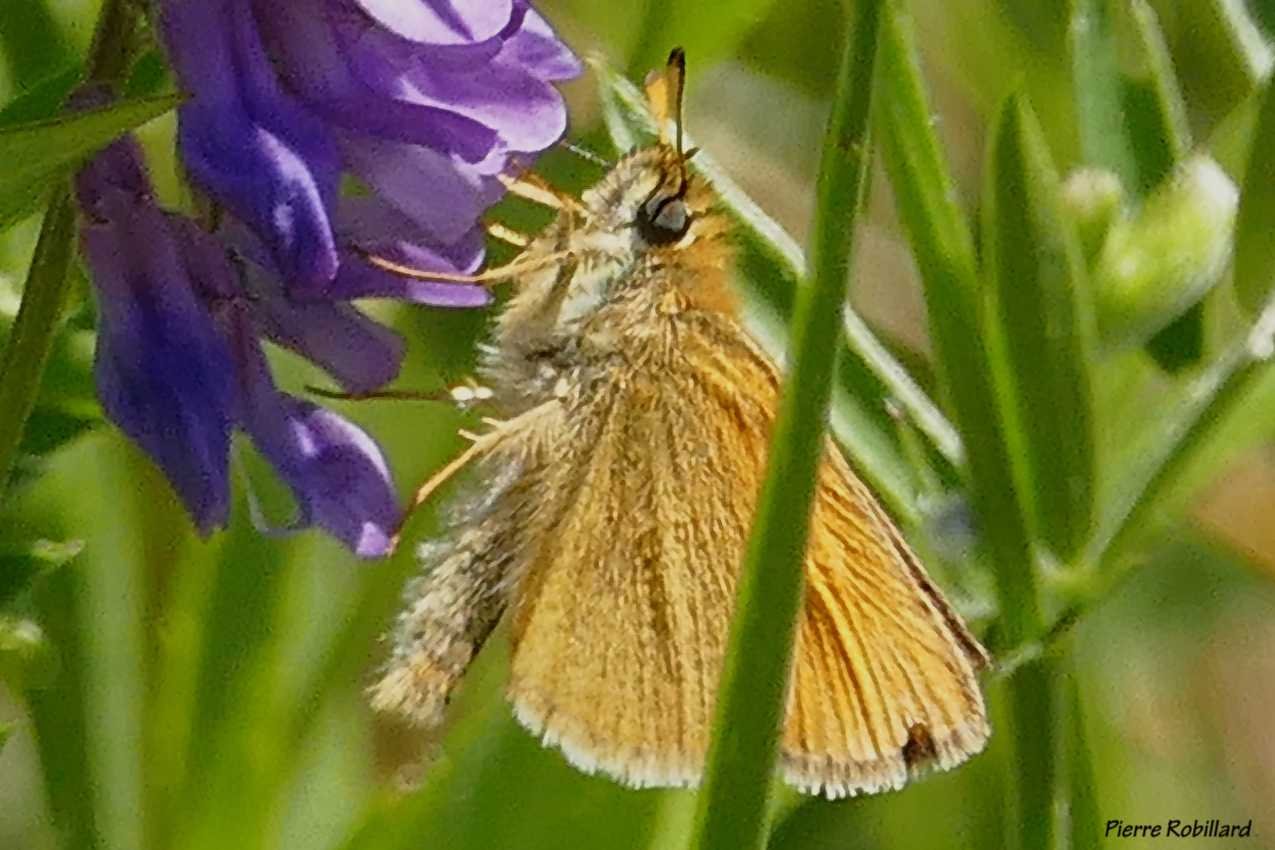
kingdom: Animalia
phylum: Arthropoda
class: Insecta
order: Lepidoptera
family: Hesperiidae
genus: Thymelicus
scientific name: Thymelicus lineola
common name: European Skipper
